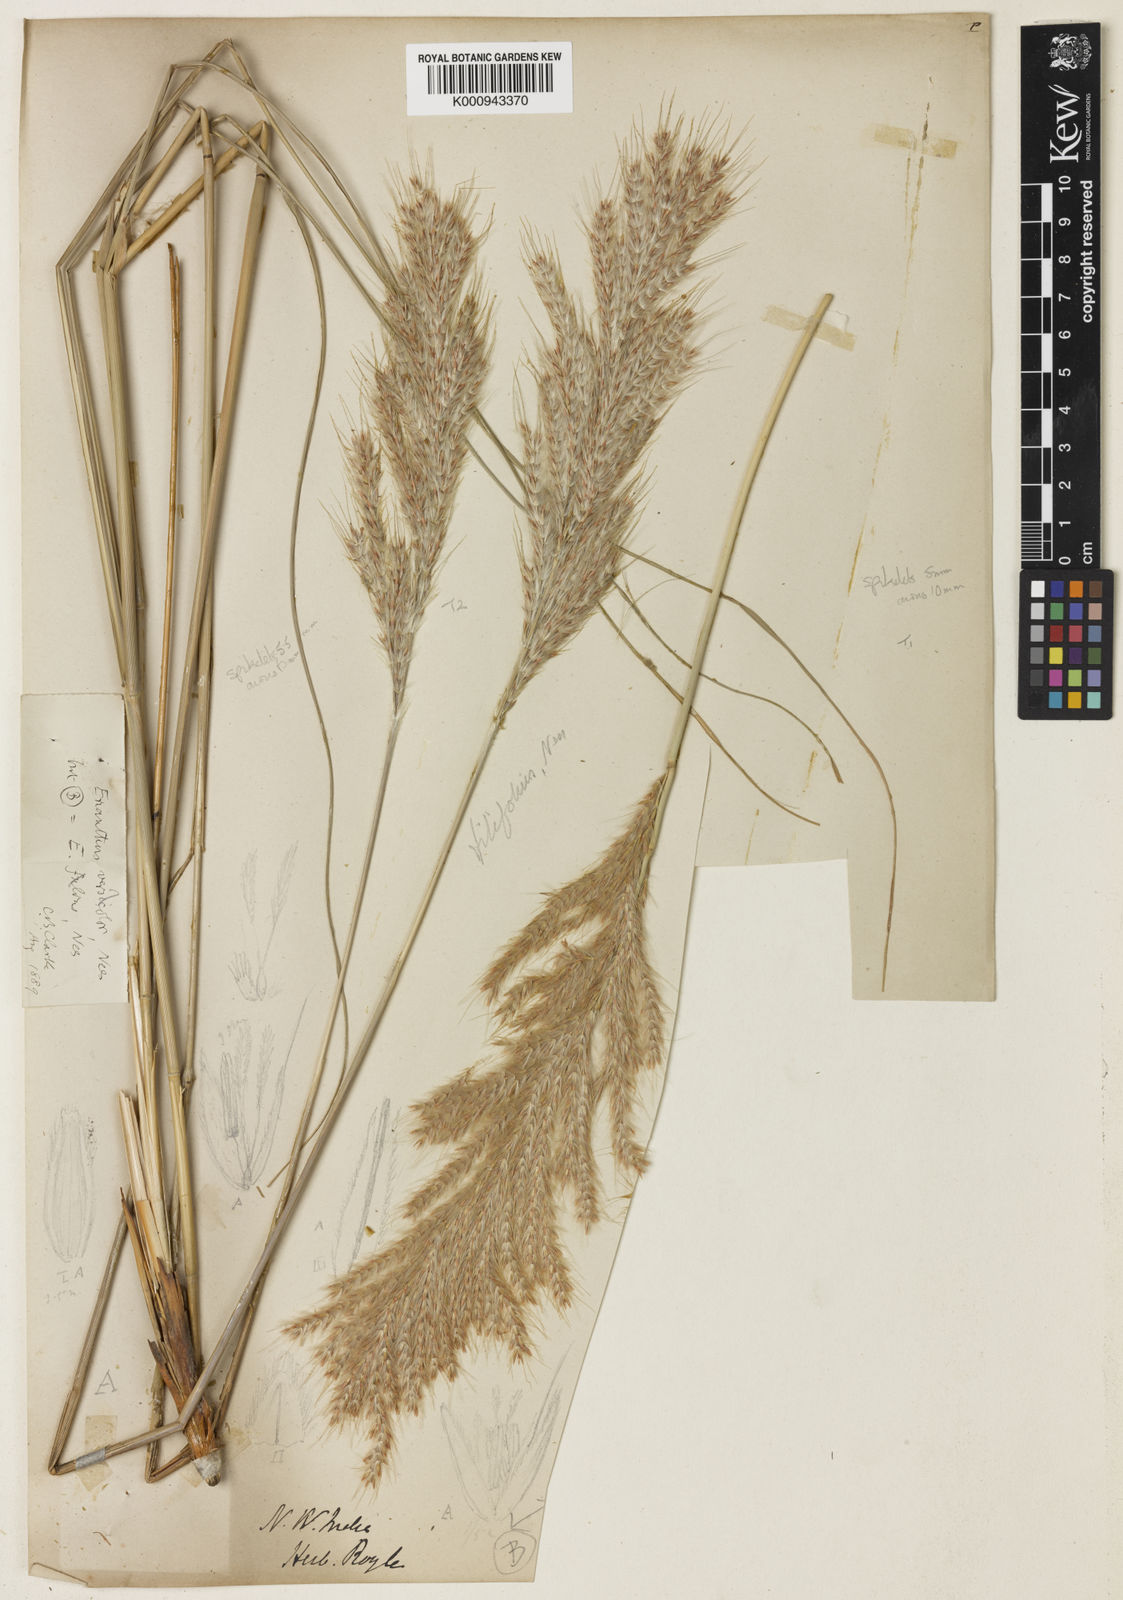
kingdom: Plantae
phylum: Tracheophyta
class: Liliopsida
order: Poales
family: Poaceae
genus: Saccharum
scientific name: Saccharum filifolium
